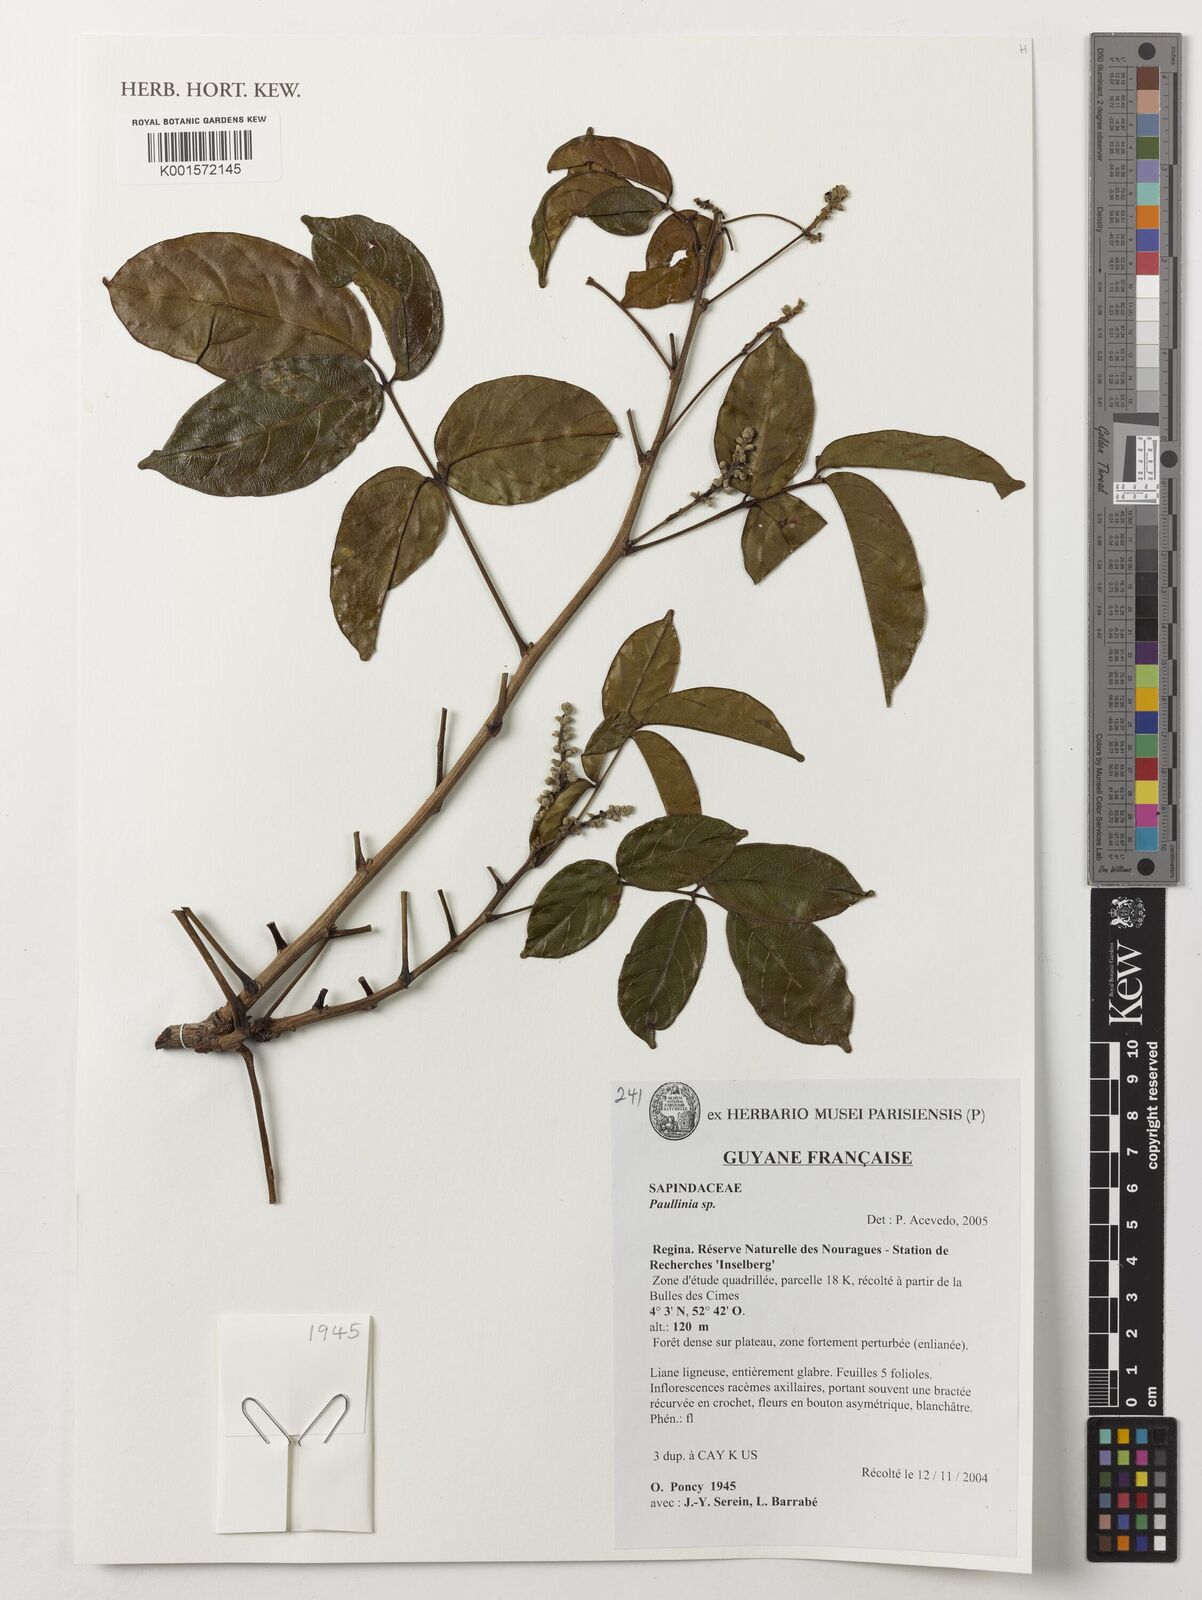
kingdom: Plantae
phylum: Tracheophyta
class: Magnoliopsida
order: Sapindales
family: Sapindaceae
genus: Paullinia
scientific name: Paullinia
